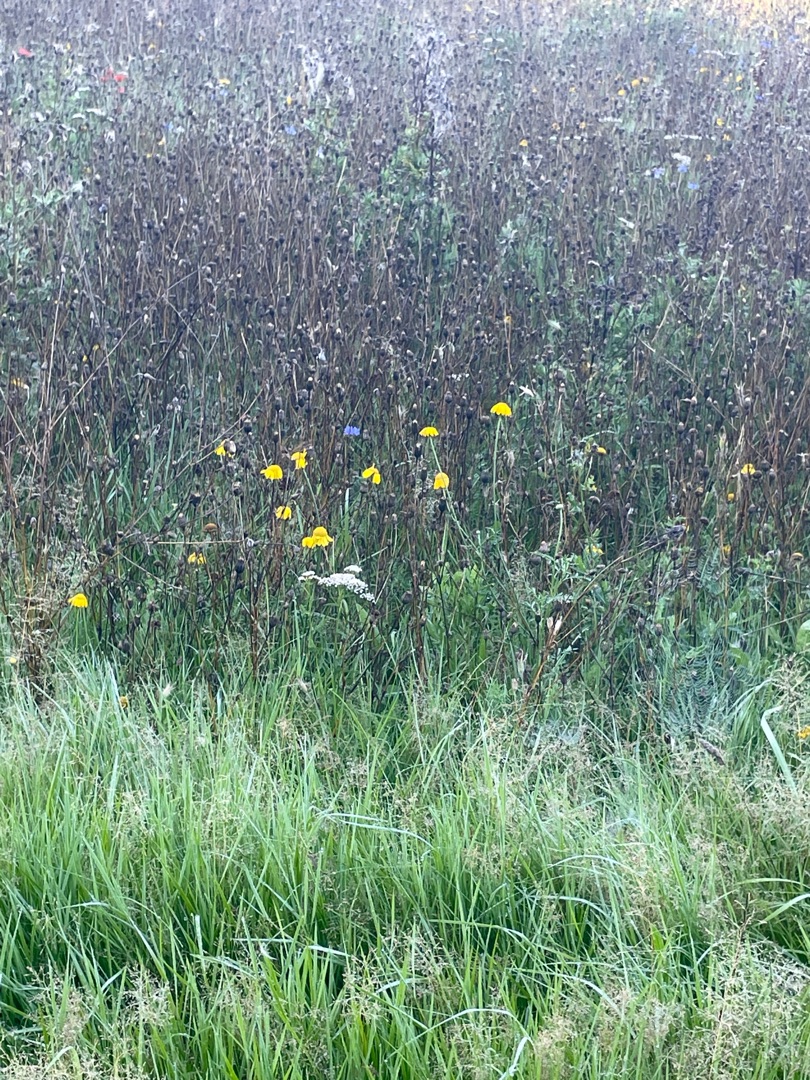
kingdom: Plantae
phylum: Tracheophyta
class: Magnoliopsida
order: Asterales
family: Asteraceae
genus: Achillea
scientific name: Achillea millefolium
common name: Almindelig røllike
